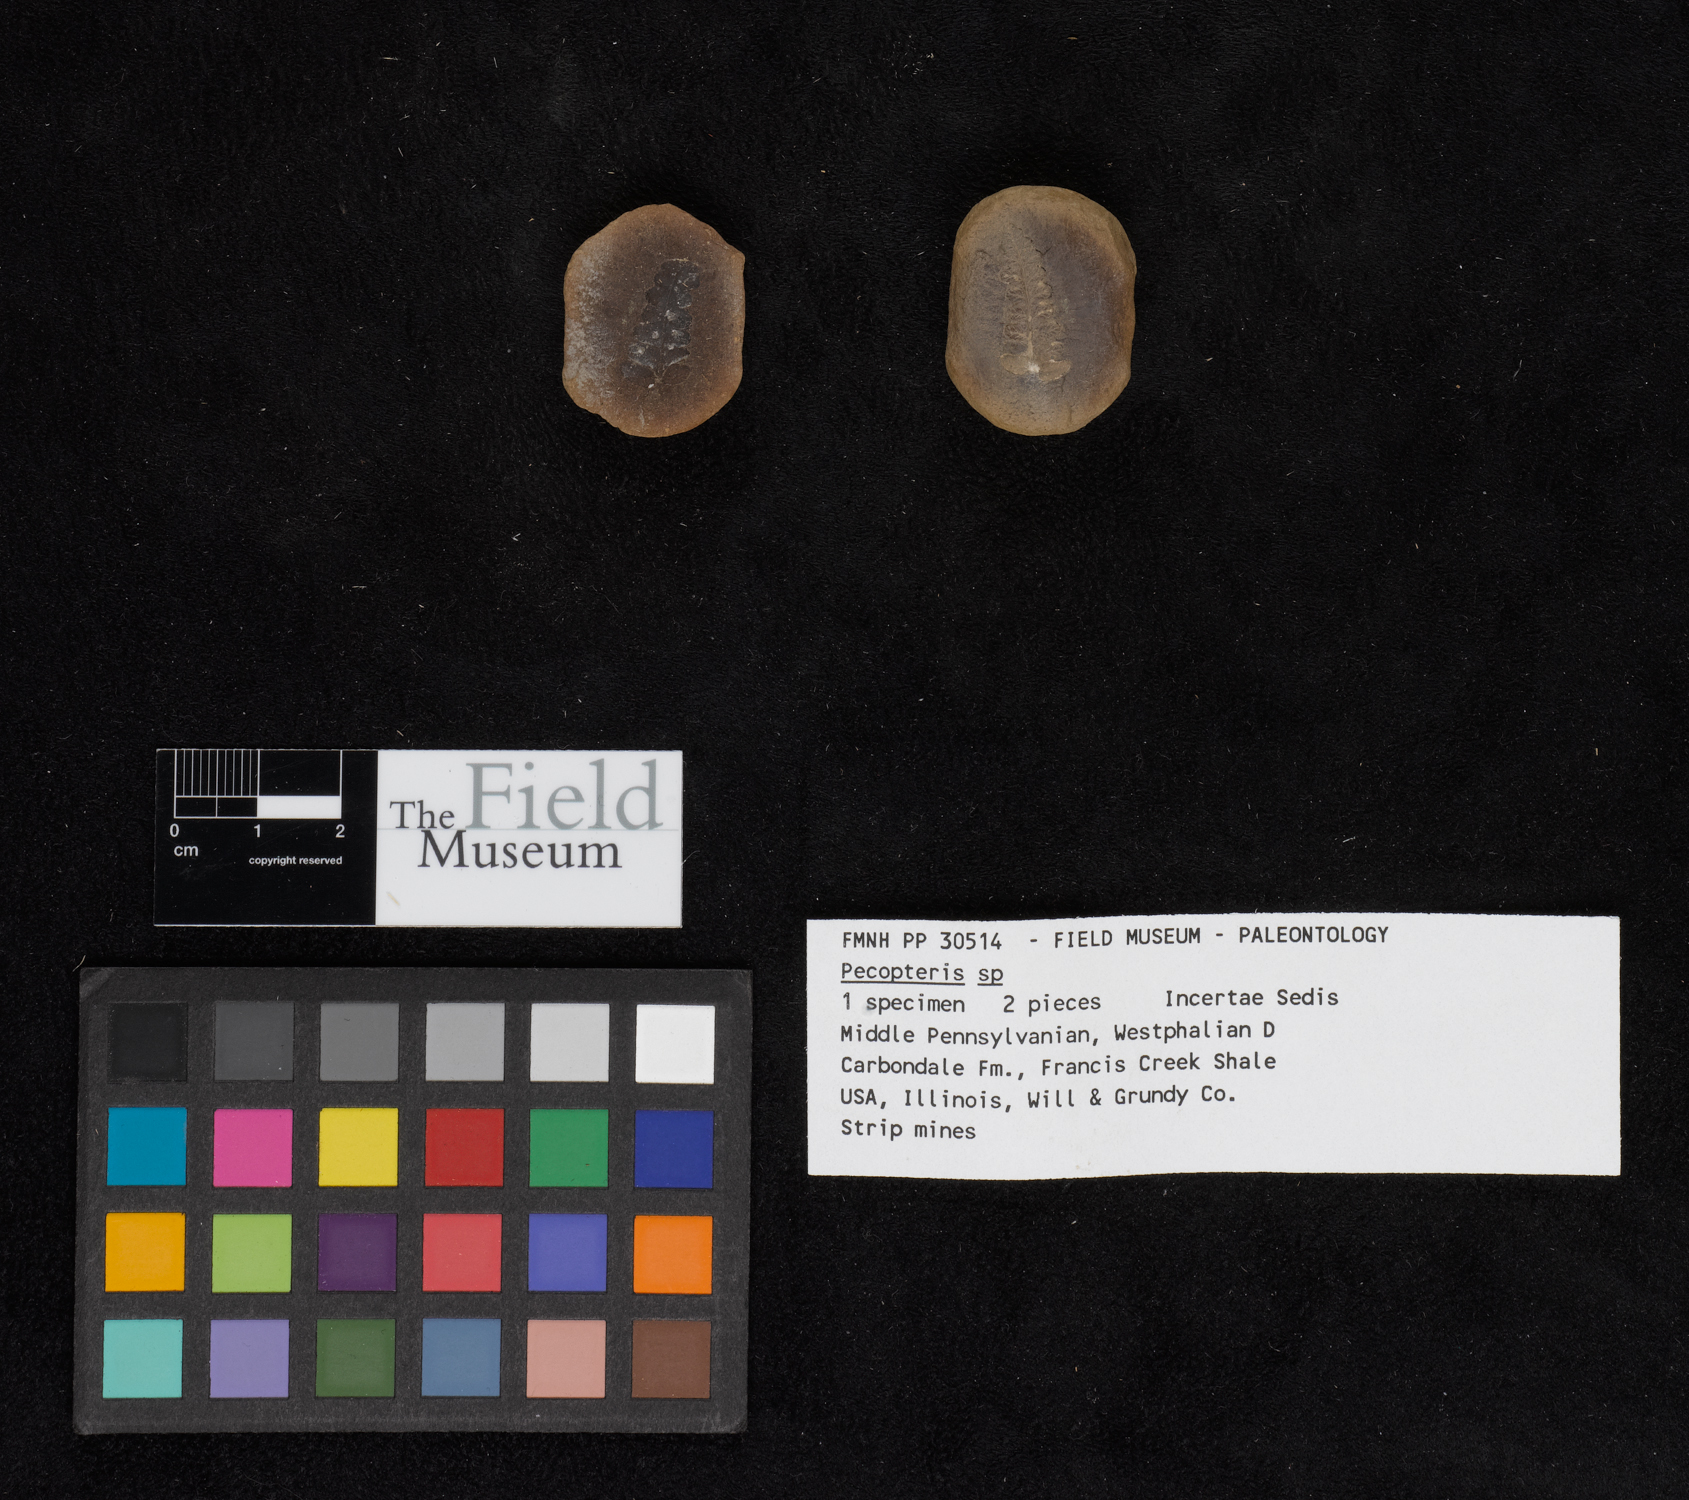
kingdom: Plantae
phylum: Tracheophyta
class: Polypodiopsida
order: Marattiales
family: Asterothecaceae
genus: Pecopteris
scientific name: Pecopteris
